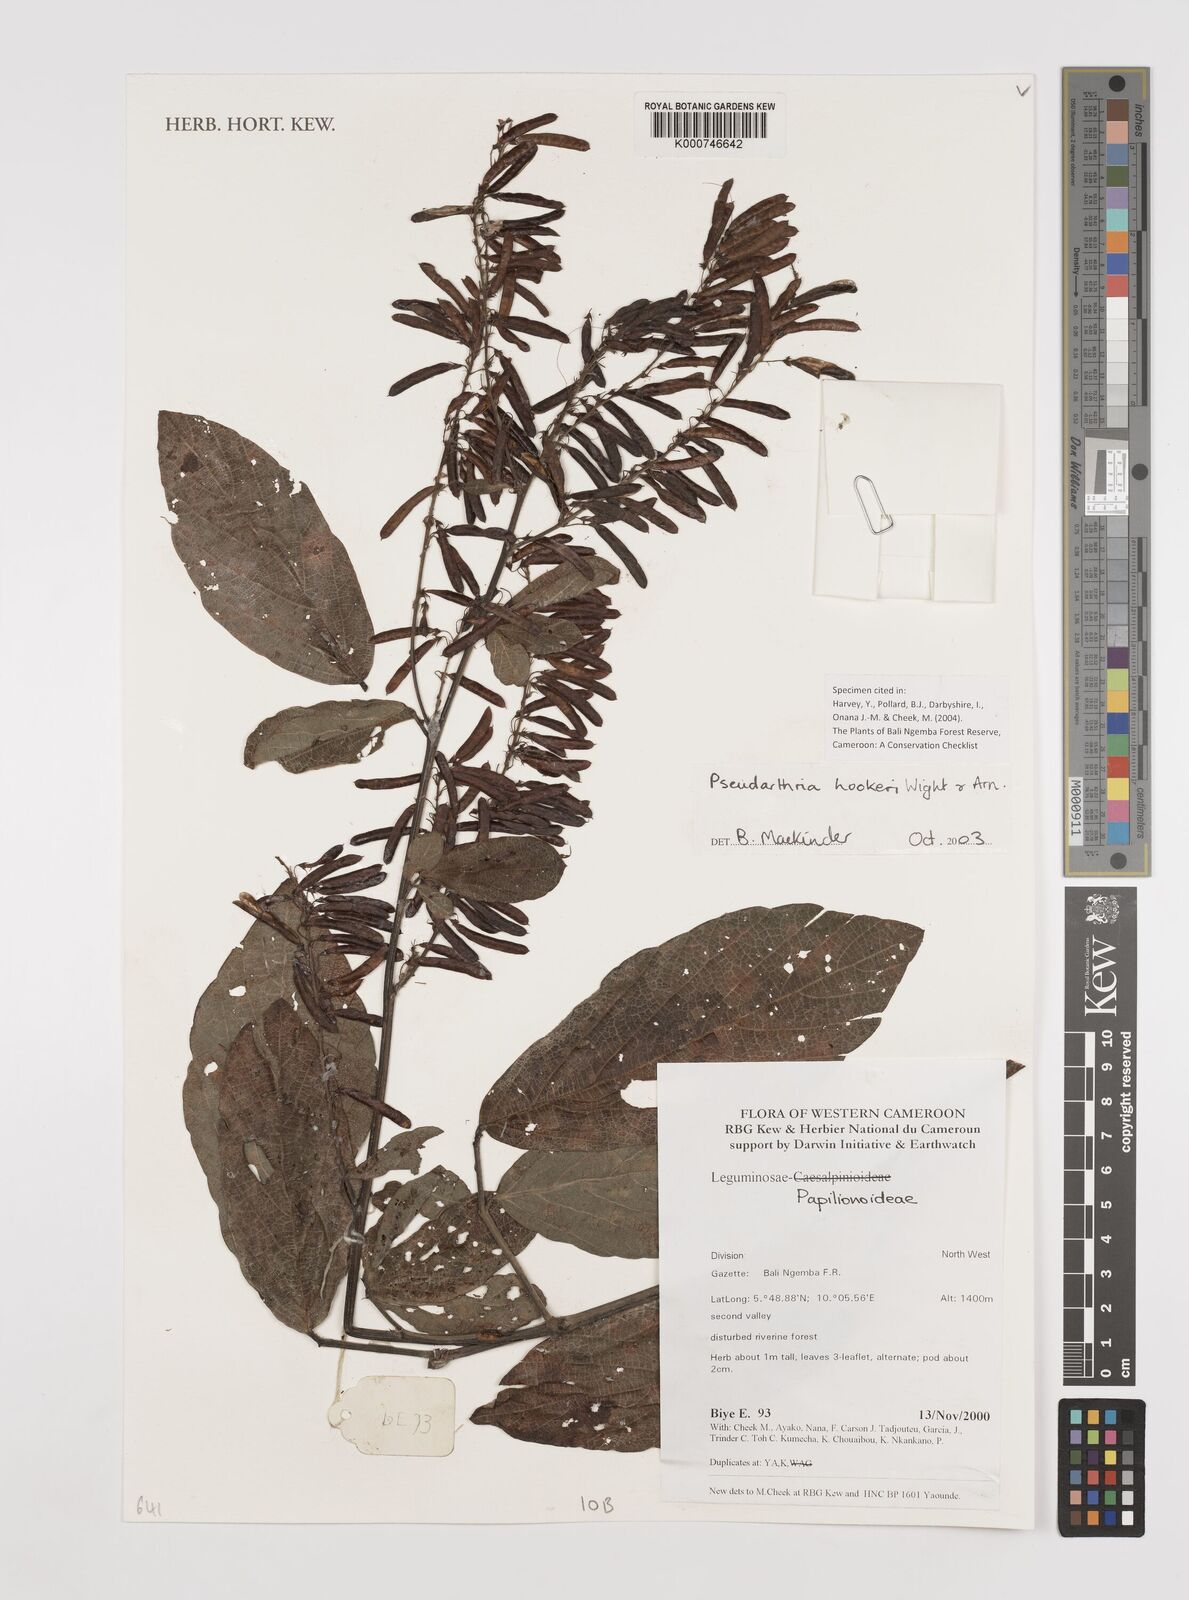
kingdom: Plantae
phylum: Tracheophyta
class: Magnoliopsida
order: Fabales
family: Fabaceae
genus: Pseudarthria
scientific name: Pseudarthria hookeri
